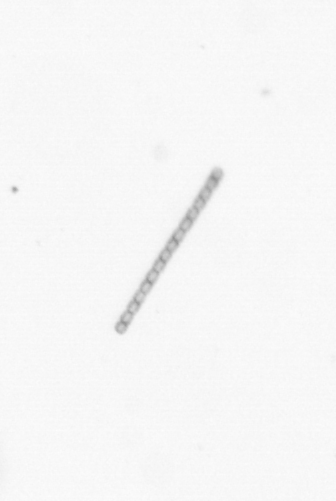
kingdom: Chromista
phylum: Ochrophyta
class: Bacillariophyceae
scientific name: Bacillariophyceae
